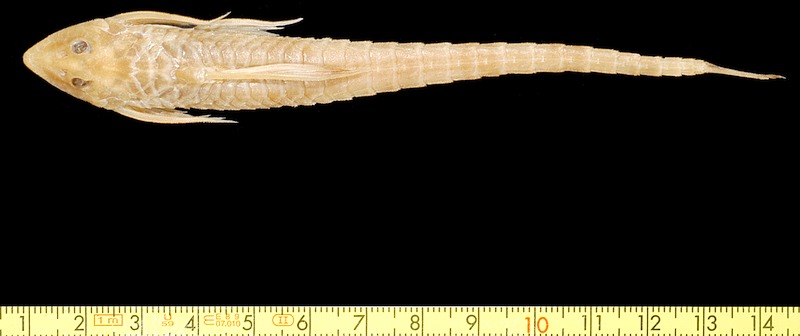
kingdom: Animalia
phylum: Chordata
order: Siluriformes
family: Loricariidae
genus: Rineloricaria
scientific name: Rineloricaria teffeana
